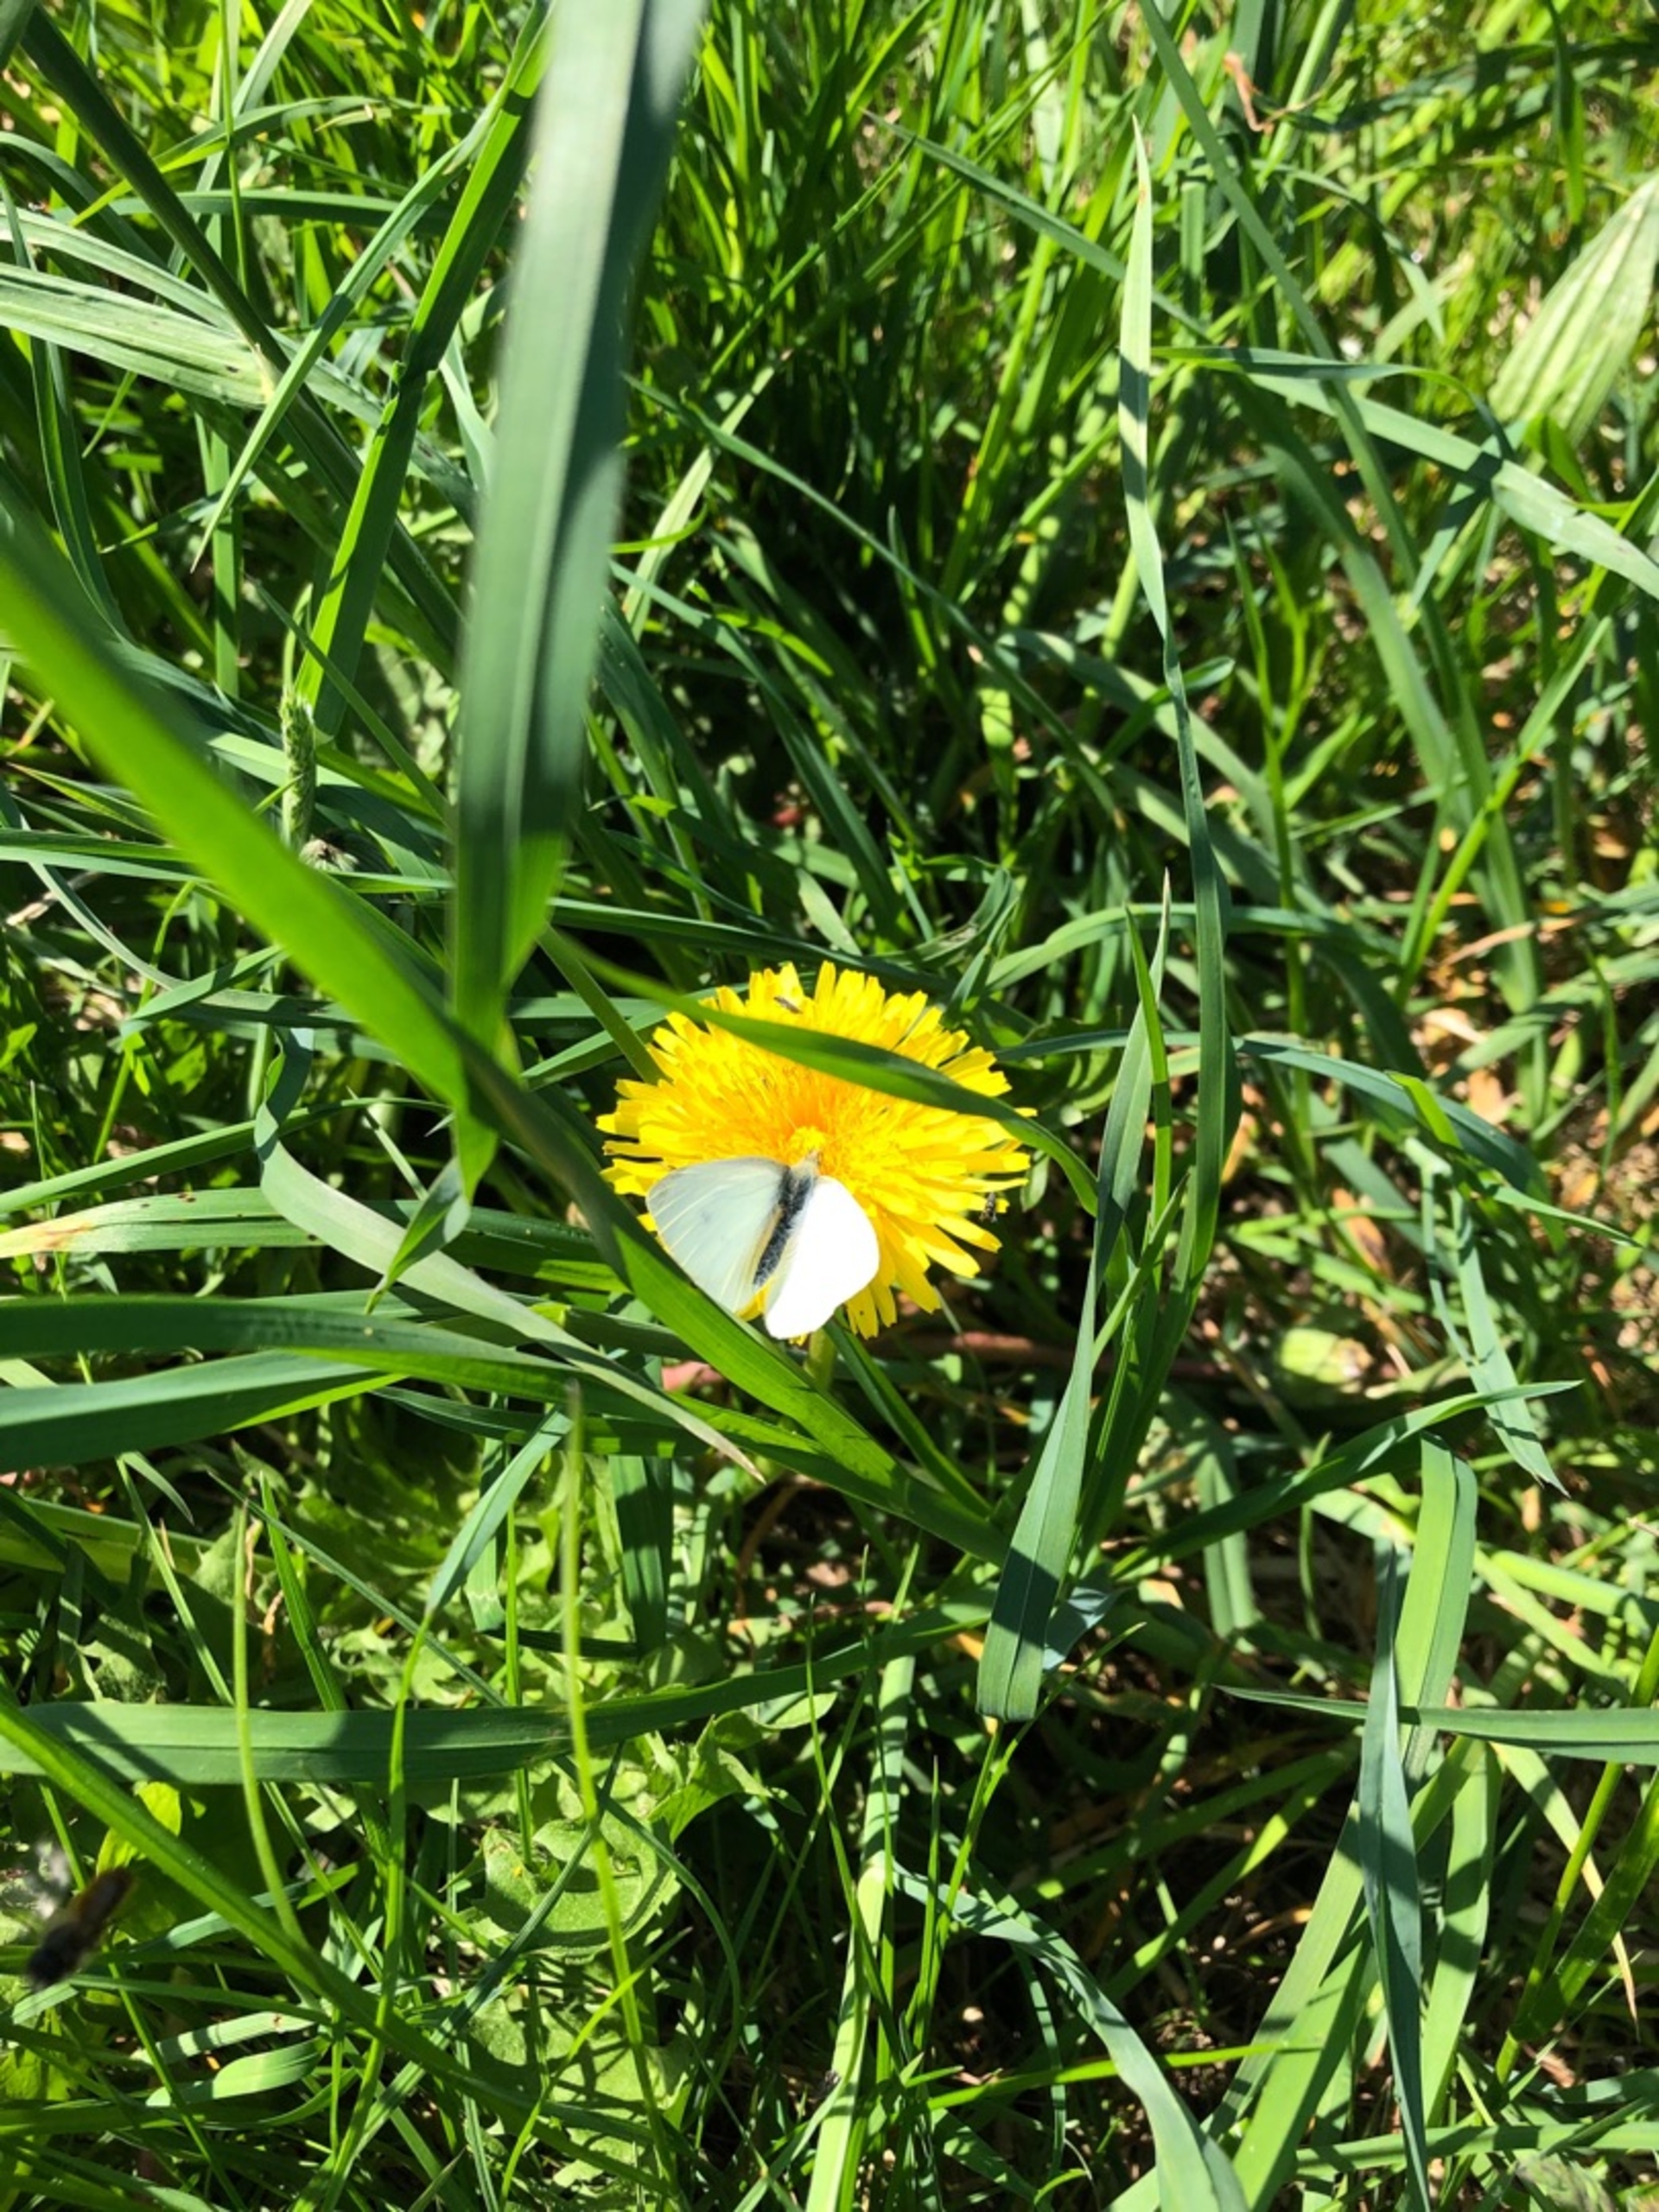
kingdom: Animalia
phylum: Arthropoda
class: Insecta
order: Lepidoptera
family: Pieridae
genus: Pieris
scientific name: Pieris rapae
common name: Lille kålsommerfugl
